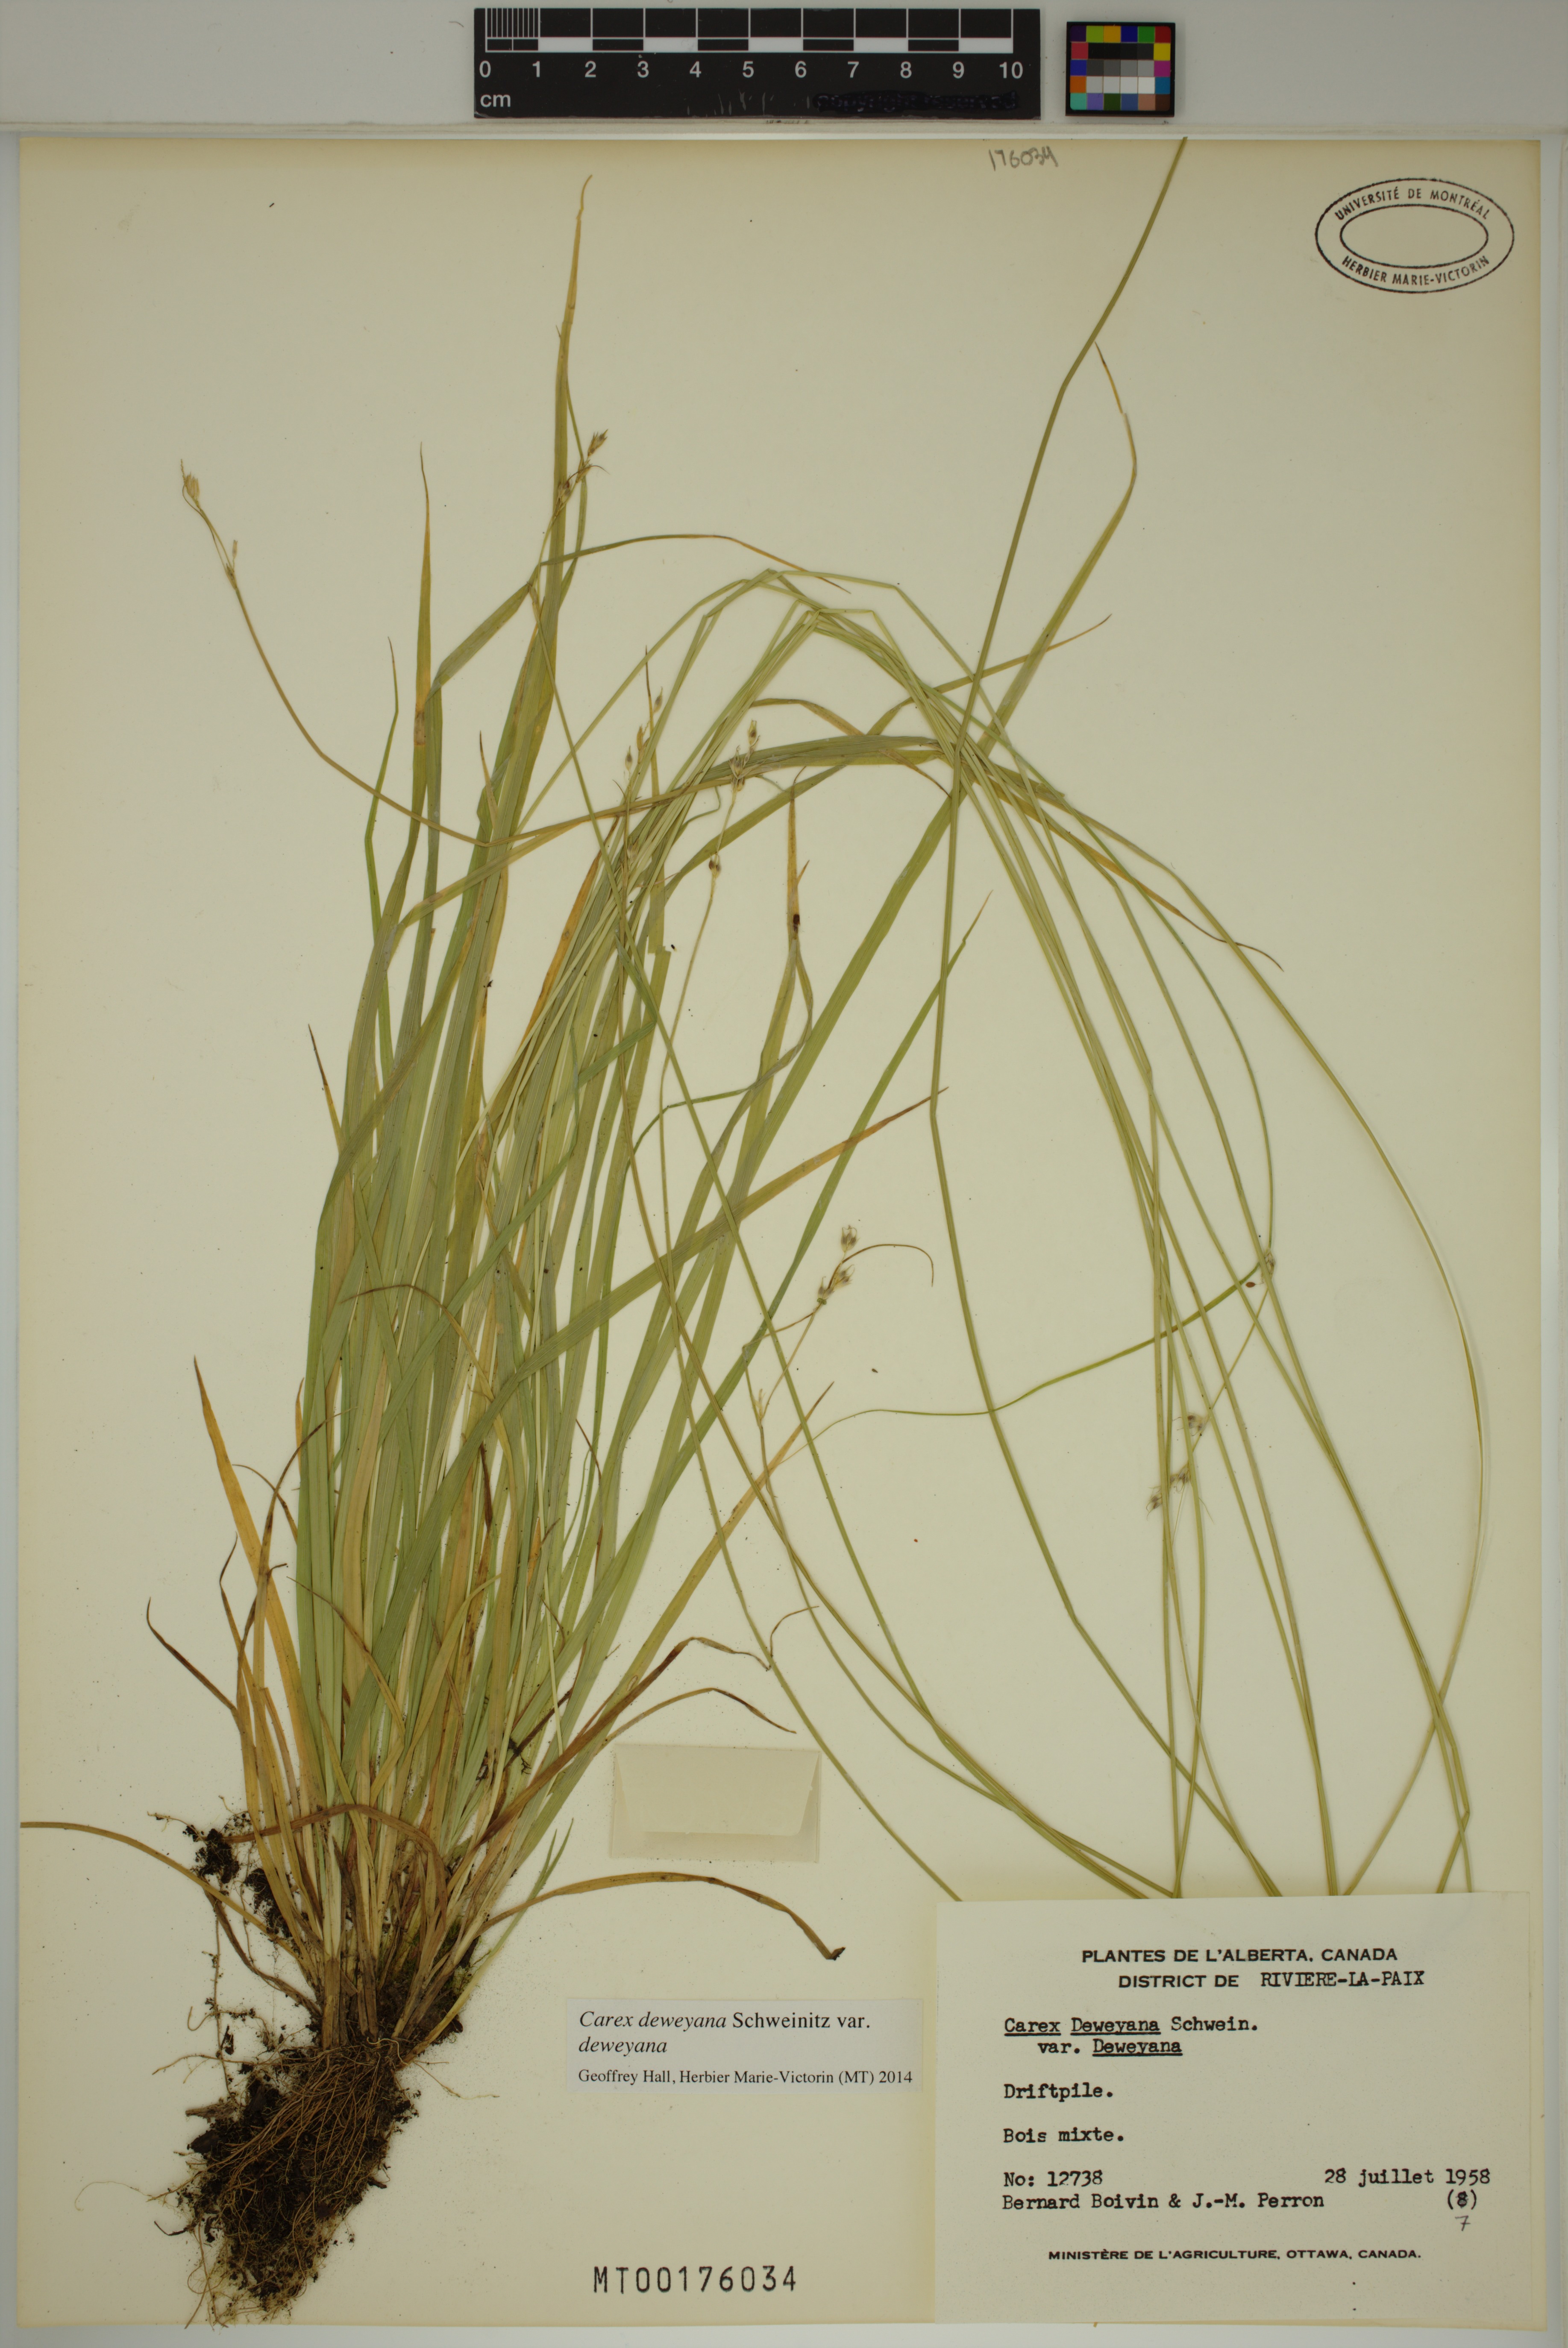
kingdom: Plantae
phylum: Tracheophyta
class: Liliopsida
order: Poales
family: Cyperaceae
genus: Carex
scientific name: Carex deweyana
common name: Dewey's sedge
